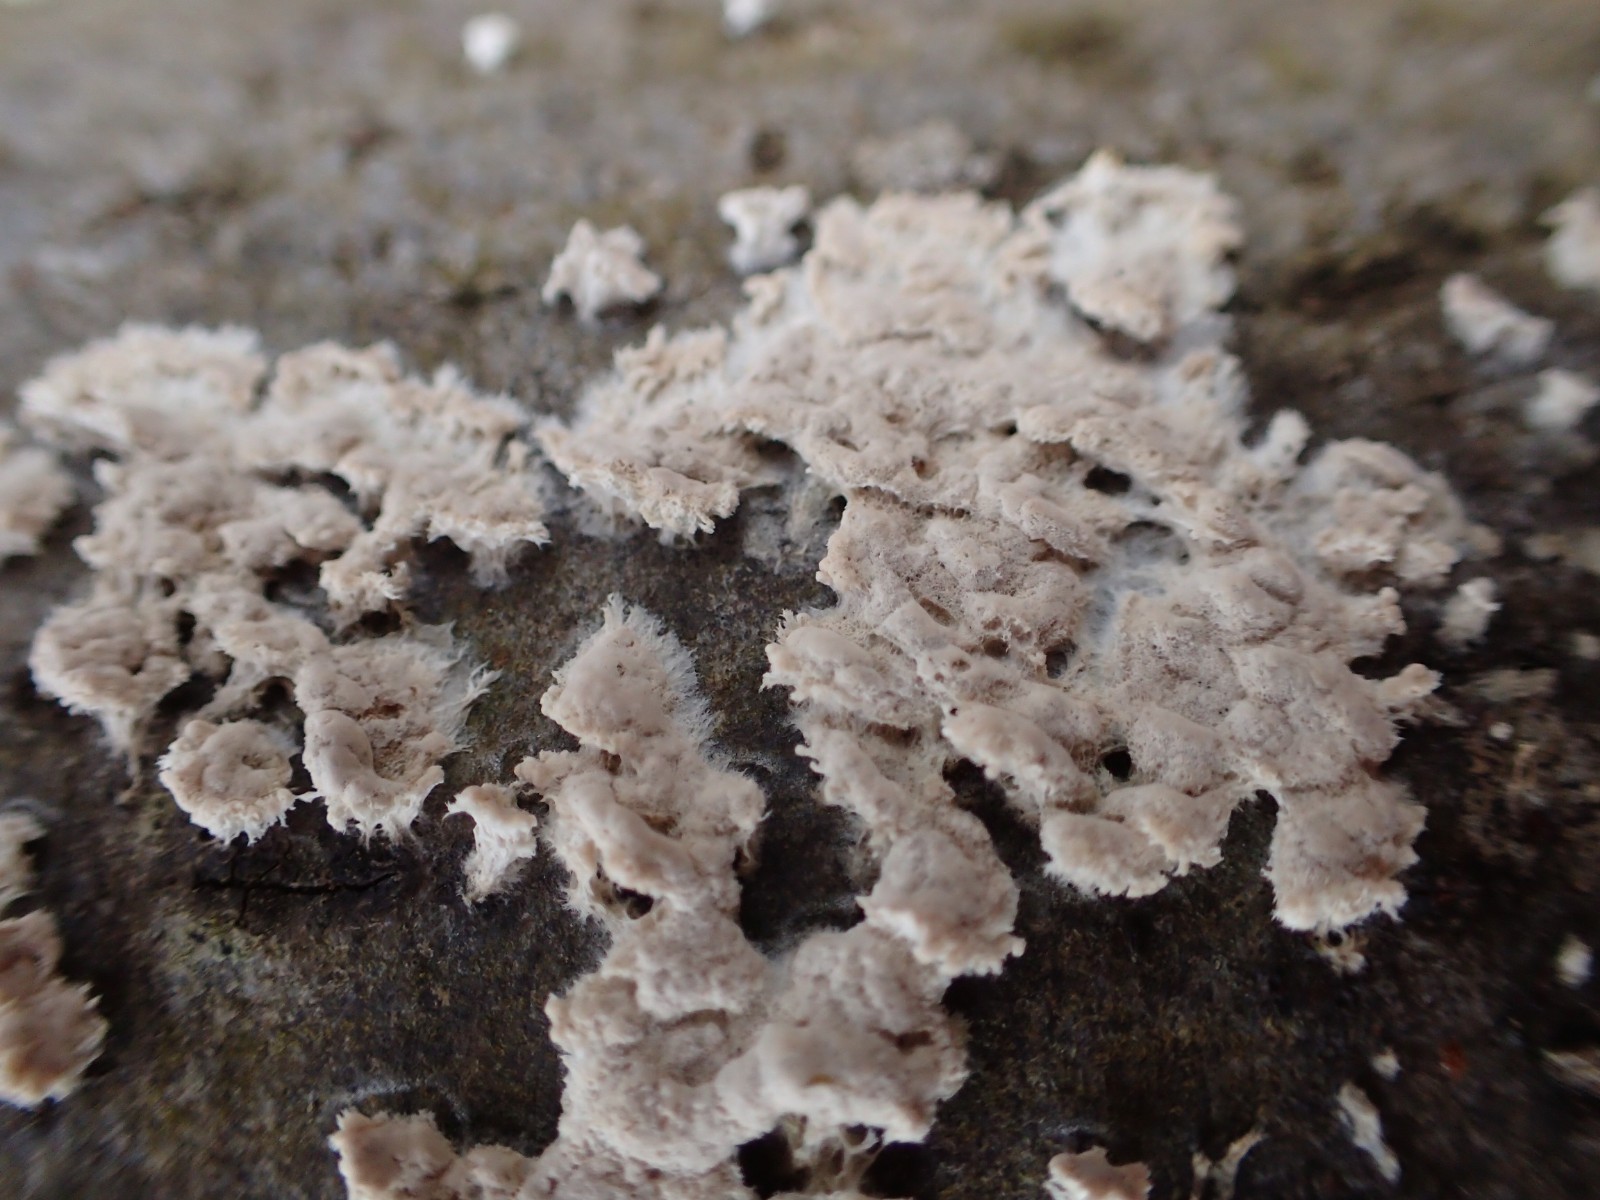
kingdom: Fungi
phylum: Basidiomycota
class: Agaricomycetes
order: Agaricales
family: Physalacriaceae
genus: Cylindrobasidium
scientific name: Cylindrobasidium evolvens
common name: sprækkehinde
